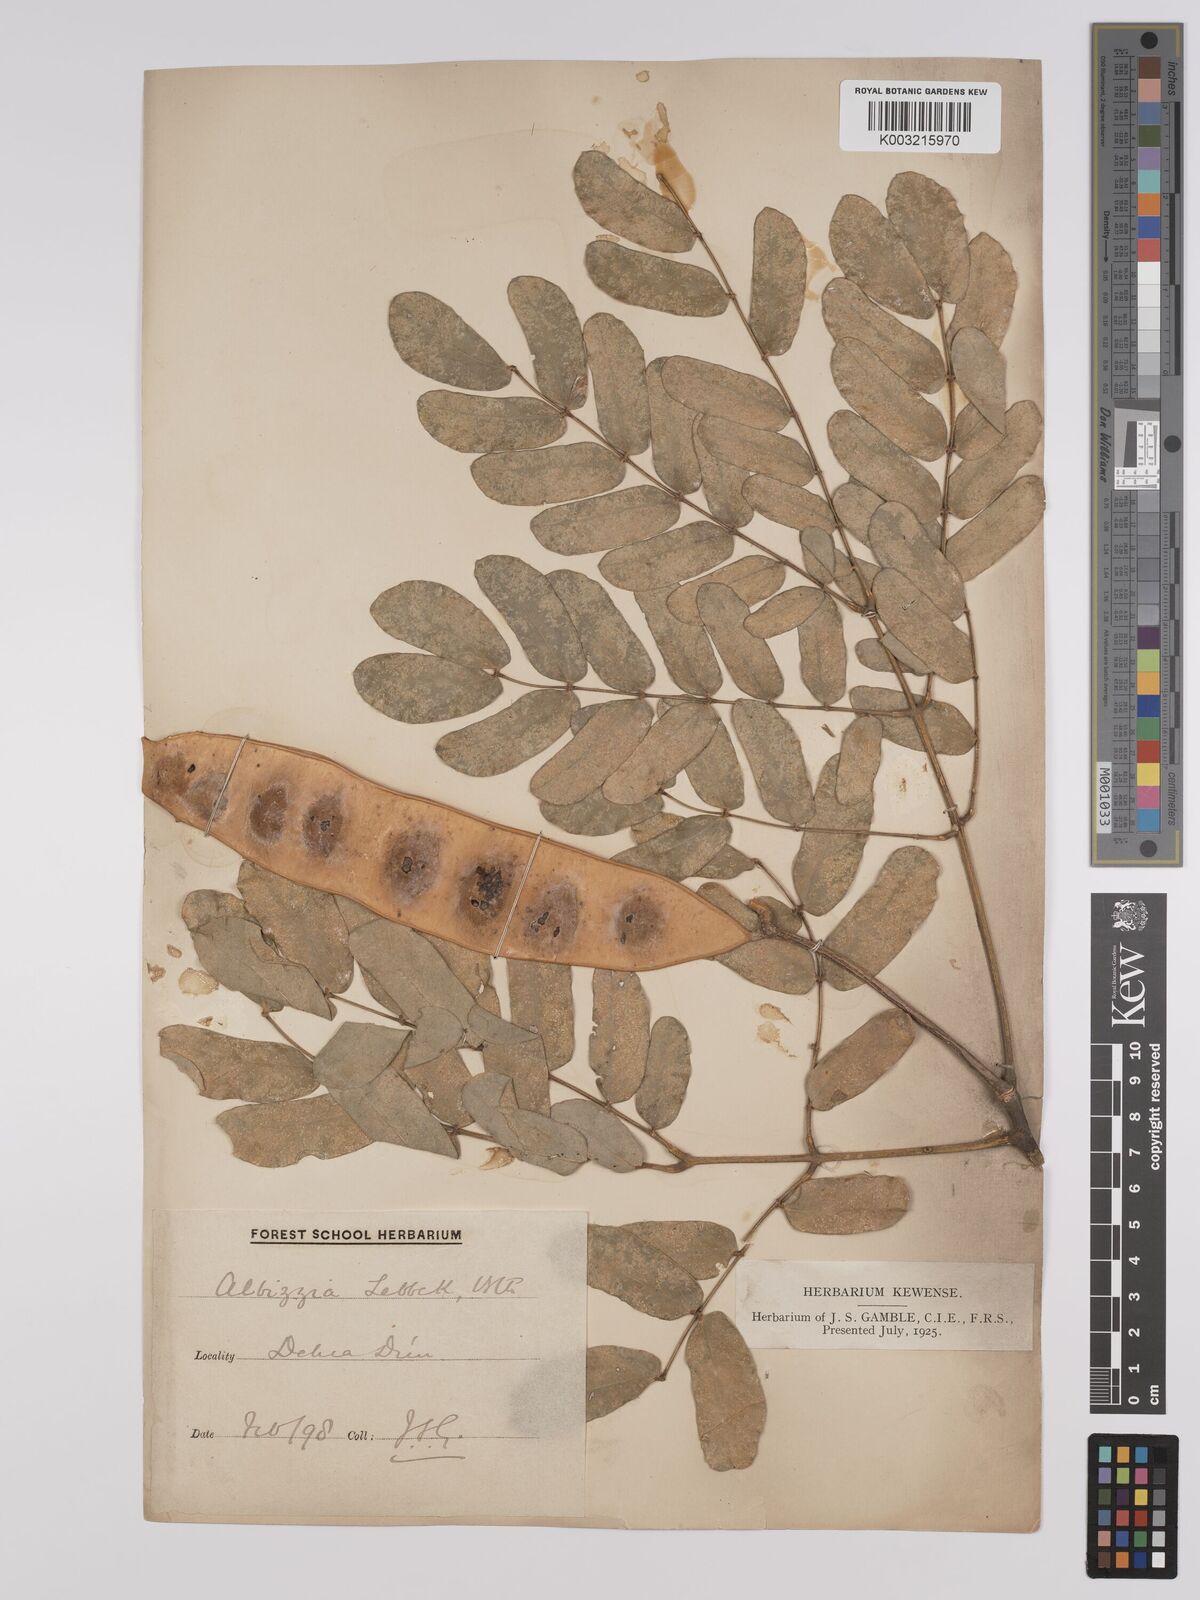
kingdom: Plantae
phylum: Tracheophyta
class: Magnoliopsida
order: Fabales
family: Fabaceae
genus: Albizia
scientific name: Albizia lebbeck
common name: Woman's tongue
